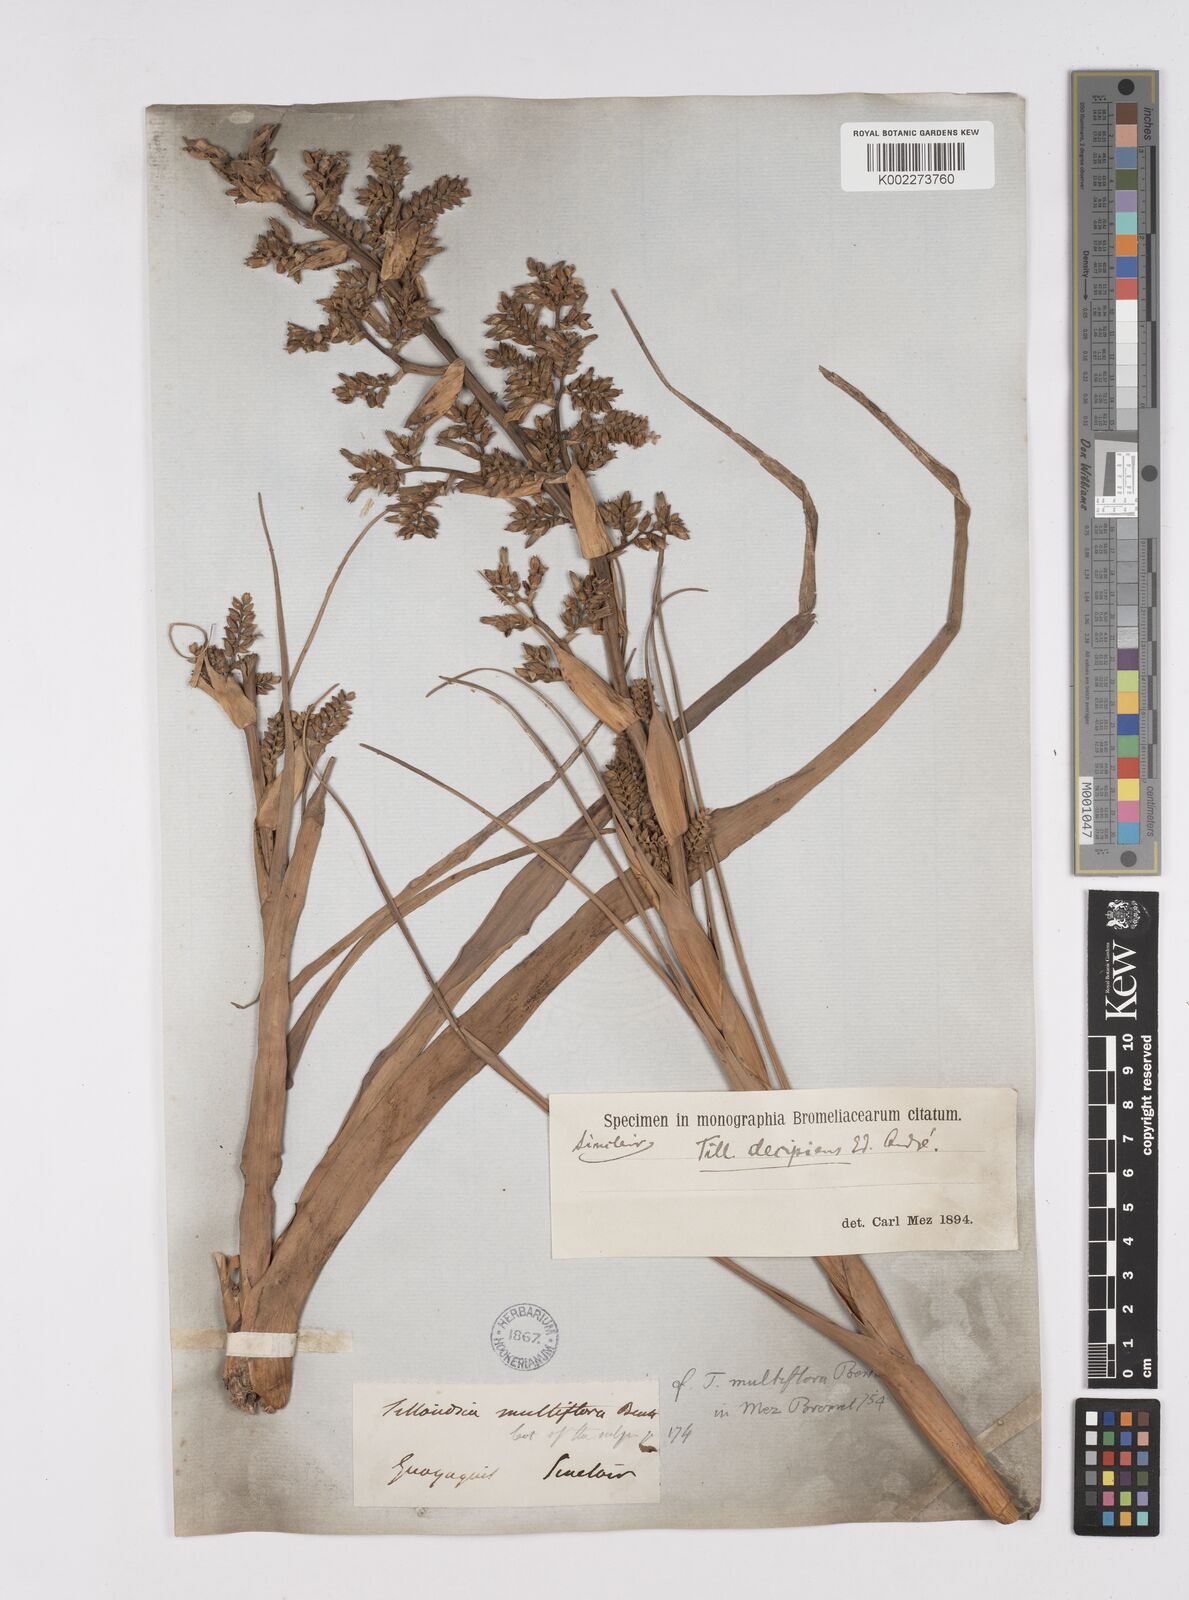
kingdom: Plantae
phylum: Tracheophyta
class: Liliopsida
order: Poales
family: Bromeliaceae
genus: Racinaea
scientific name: Racinaea multiflora
